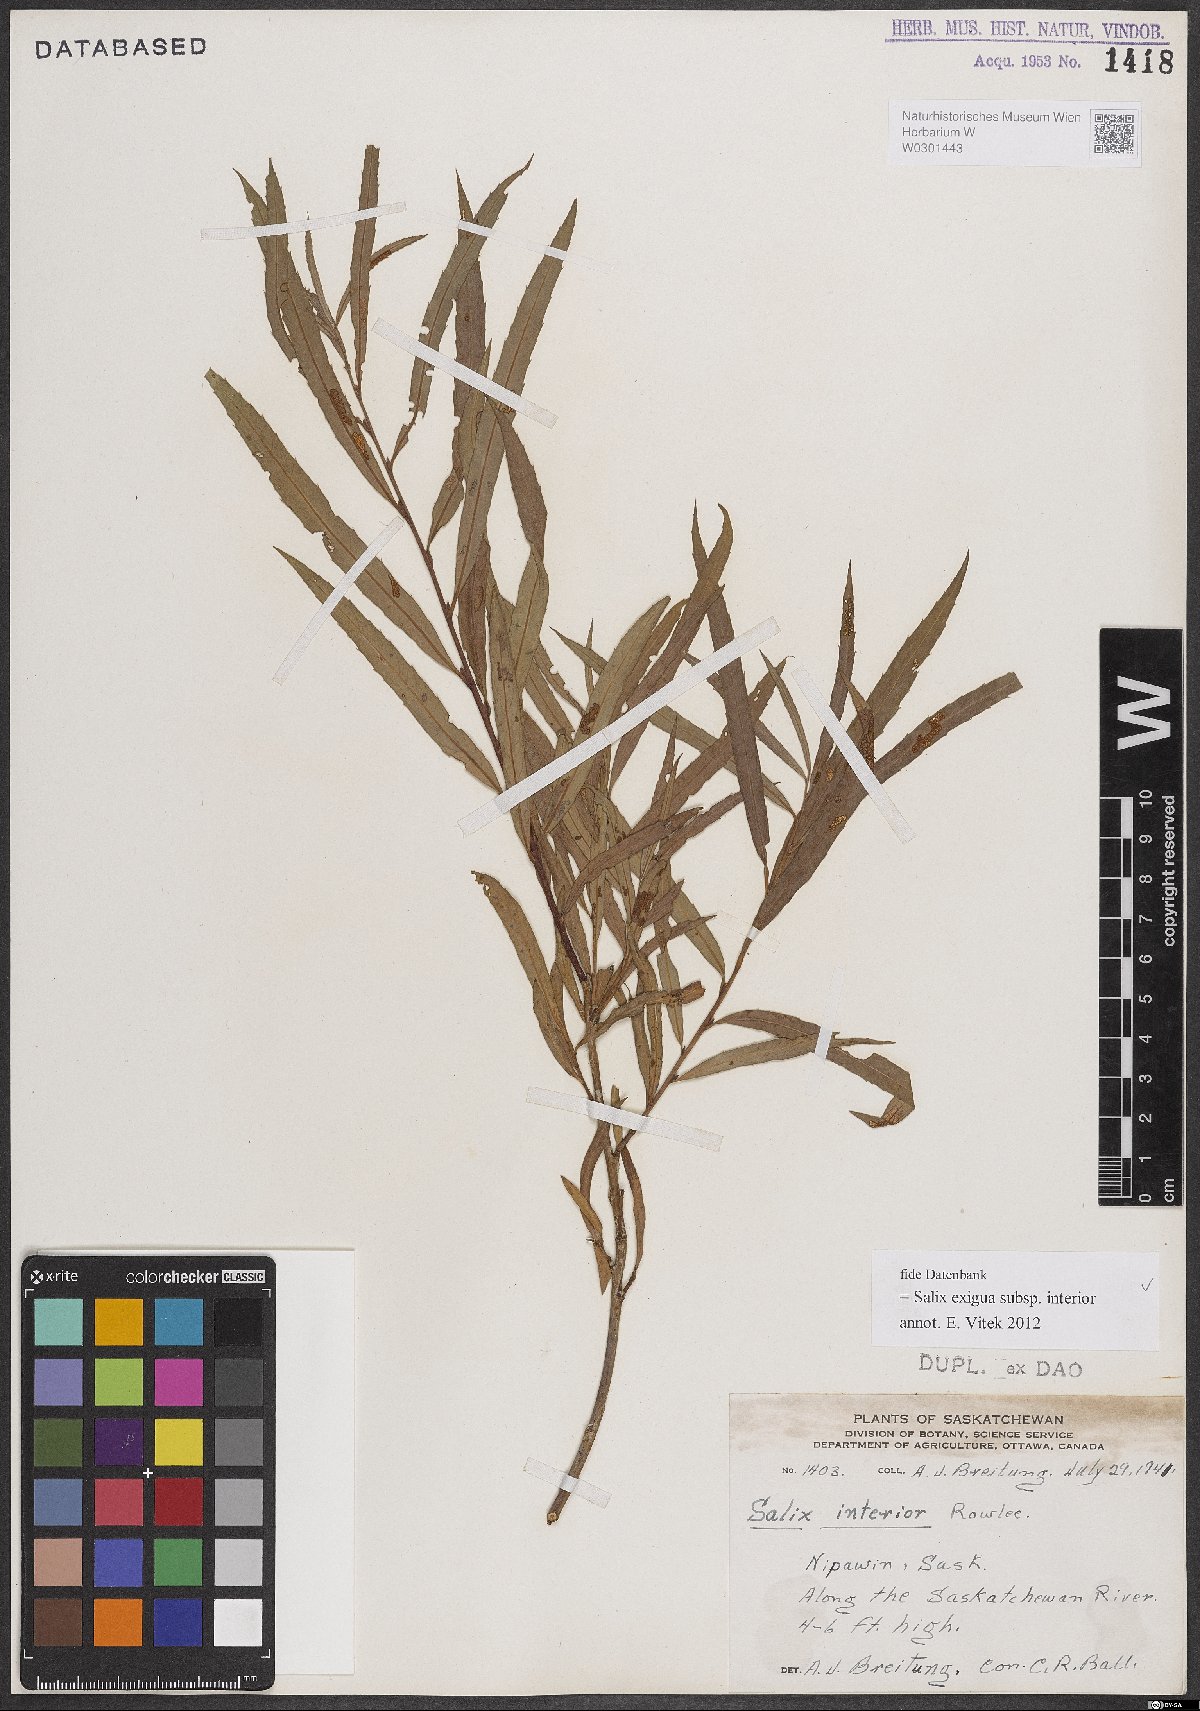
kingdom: Plantae
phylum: Tracheophyta
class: Magnoliopsida
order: Malpighiales
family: Salicaceae
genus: Salix
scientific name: Salix interior
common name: Sandbar willow
